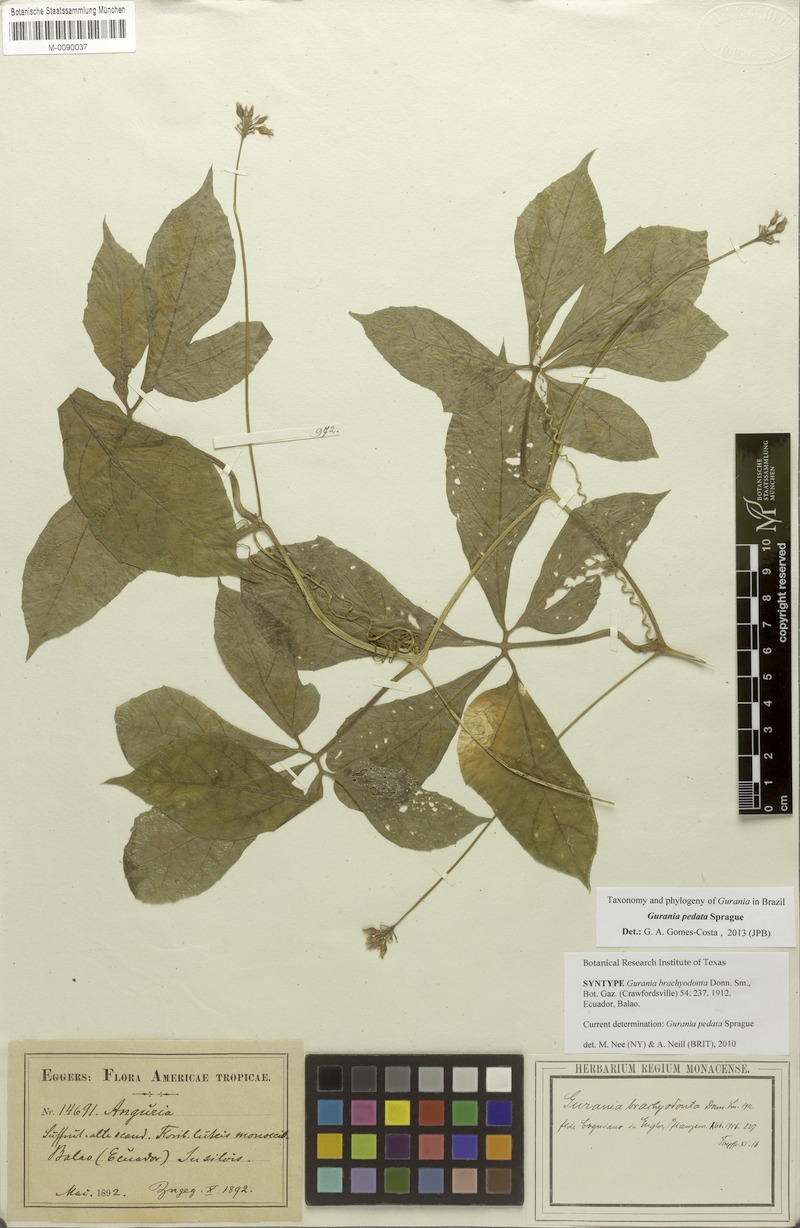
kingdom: Plantae
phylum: Tracheophyta
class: Magnoliopsida
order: Cucurbitales
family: Cucurbitaceae
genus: Gurania
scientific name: Gurania pedata
